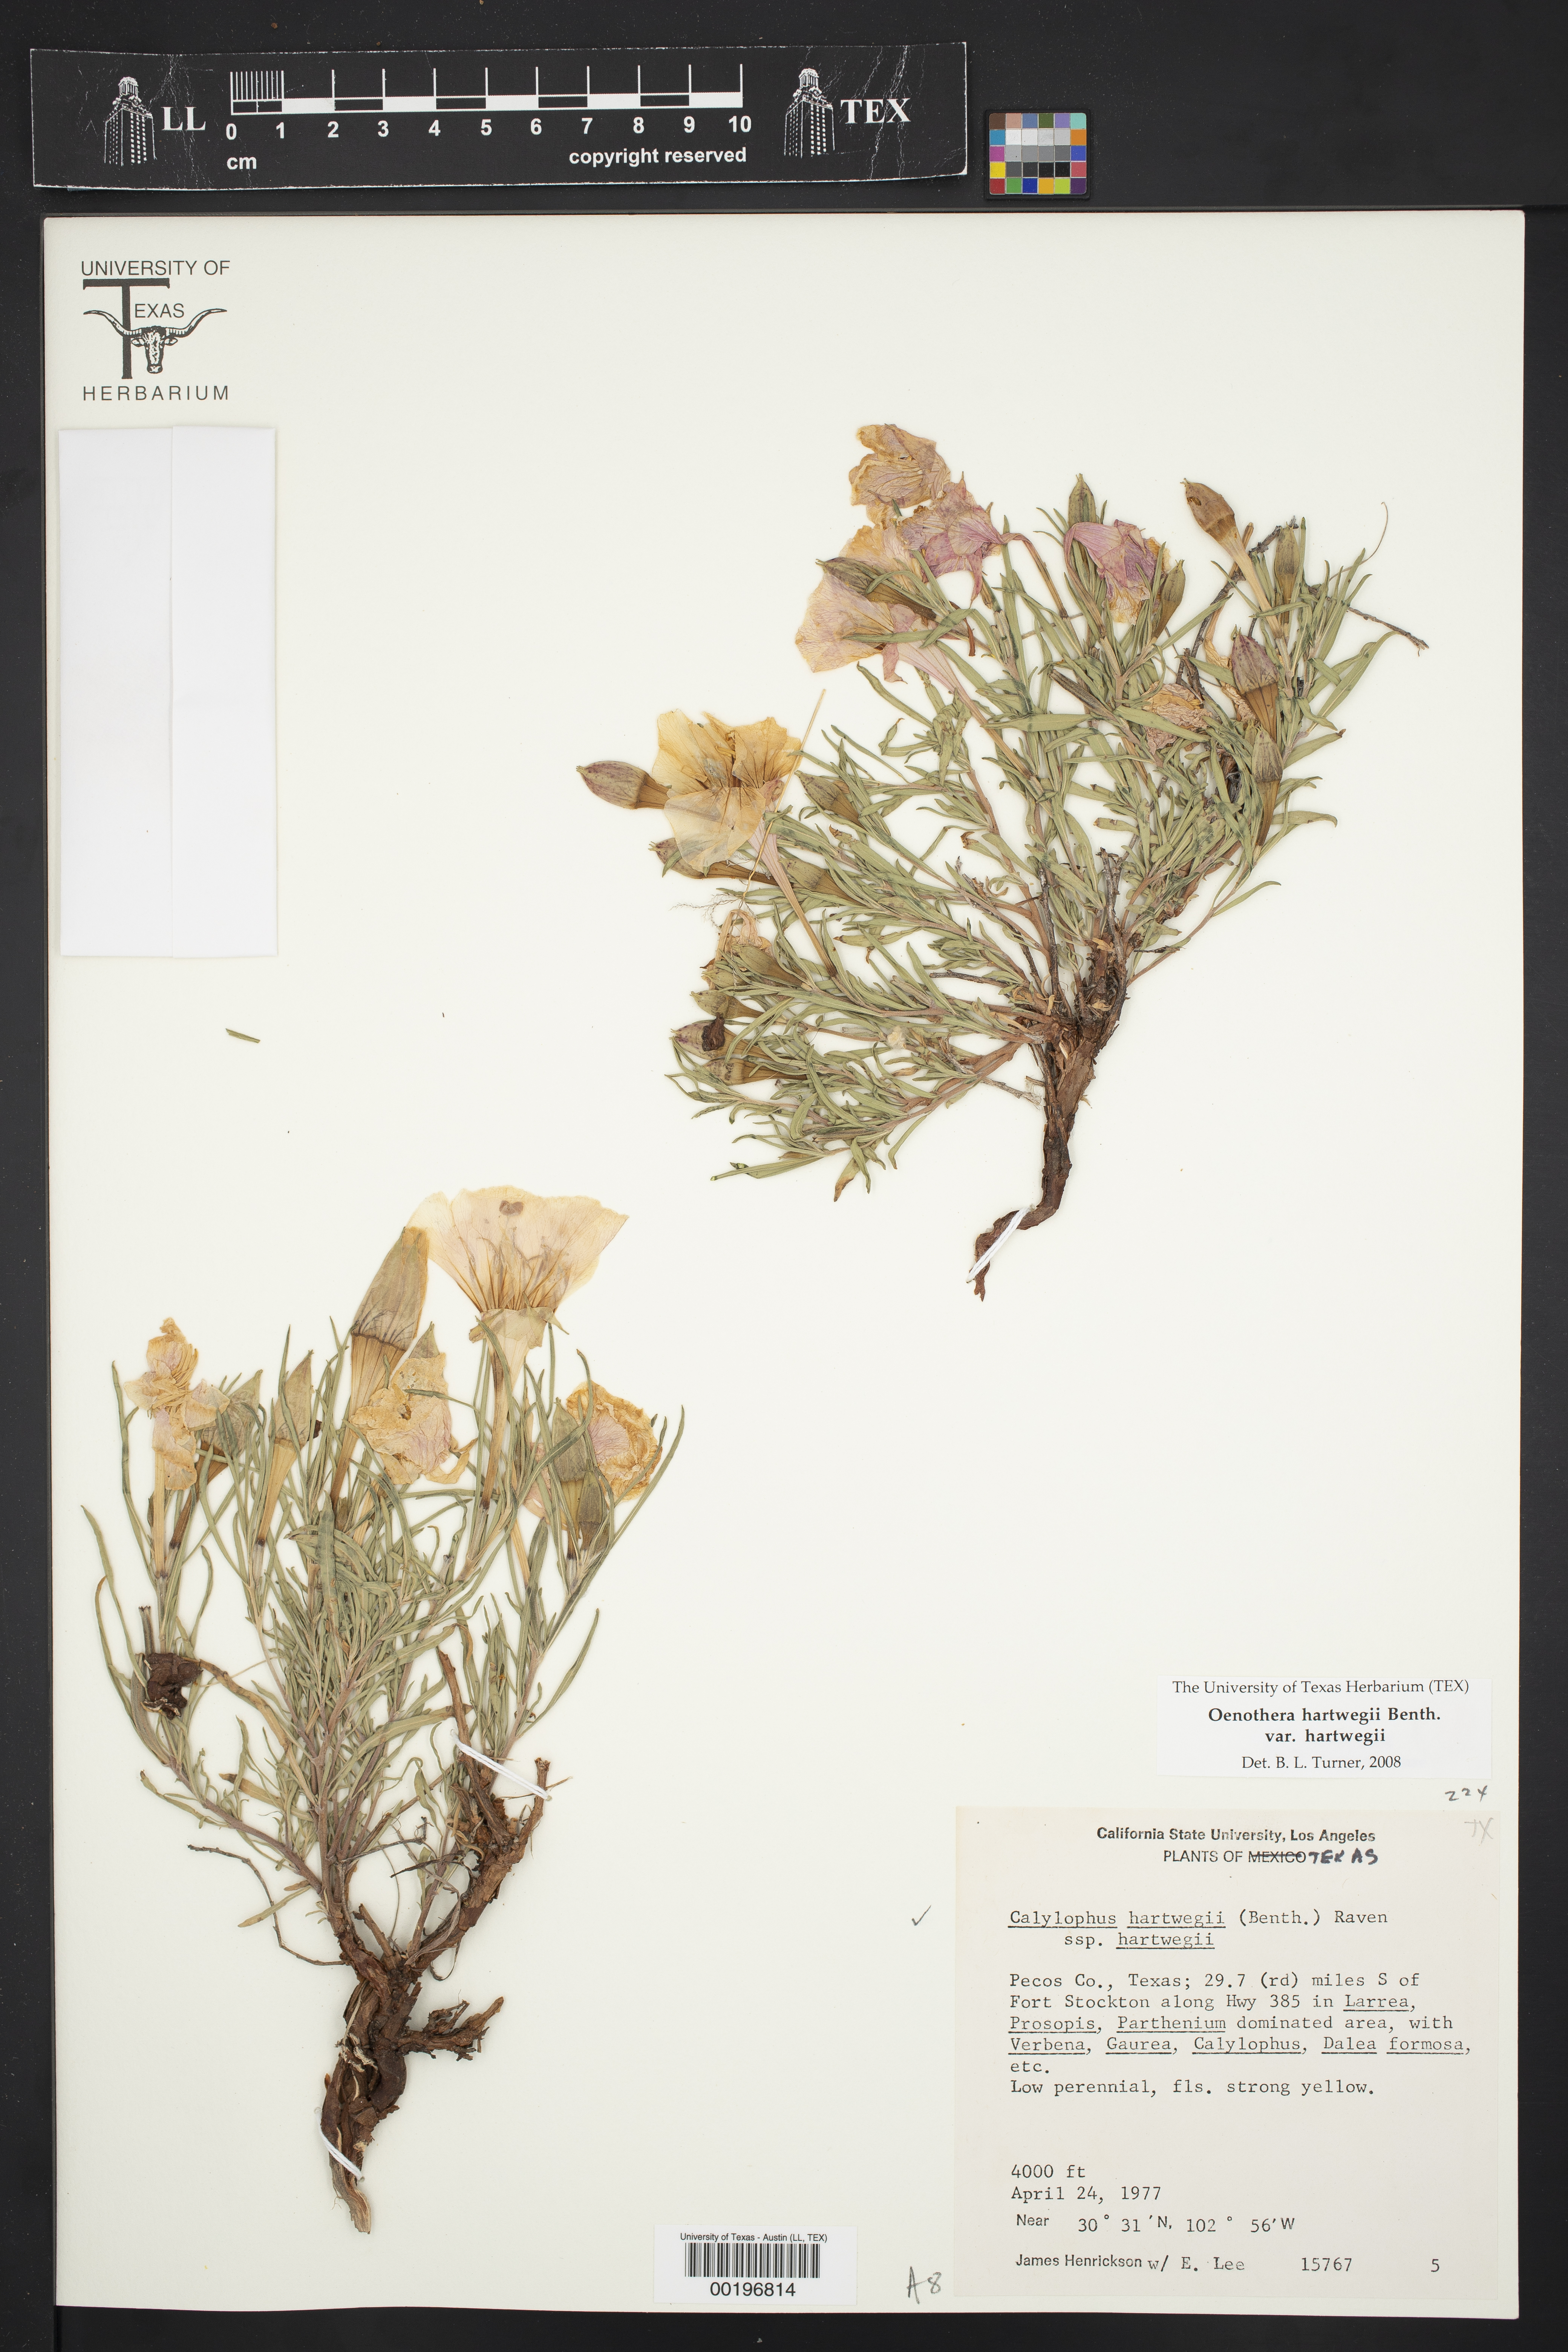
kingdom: Plantae
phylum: Tracheophyta
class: Magnoliopsida
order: Myrtales
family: Onagraceae
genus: Oenothera
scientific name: Oenothera hartwegii
